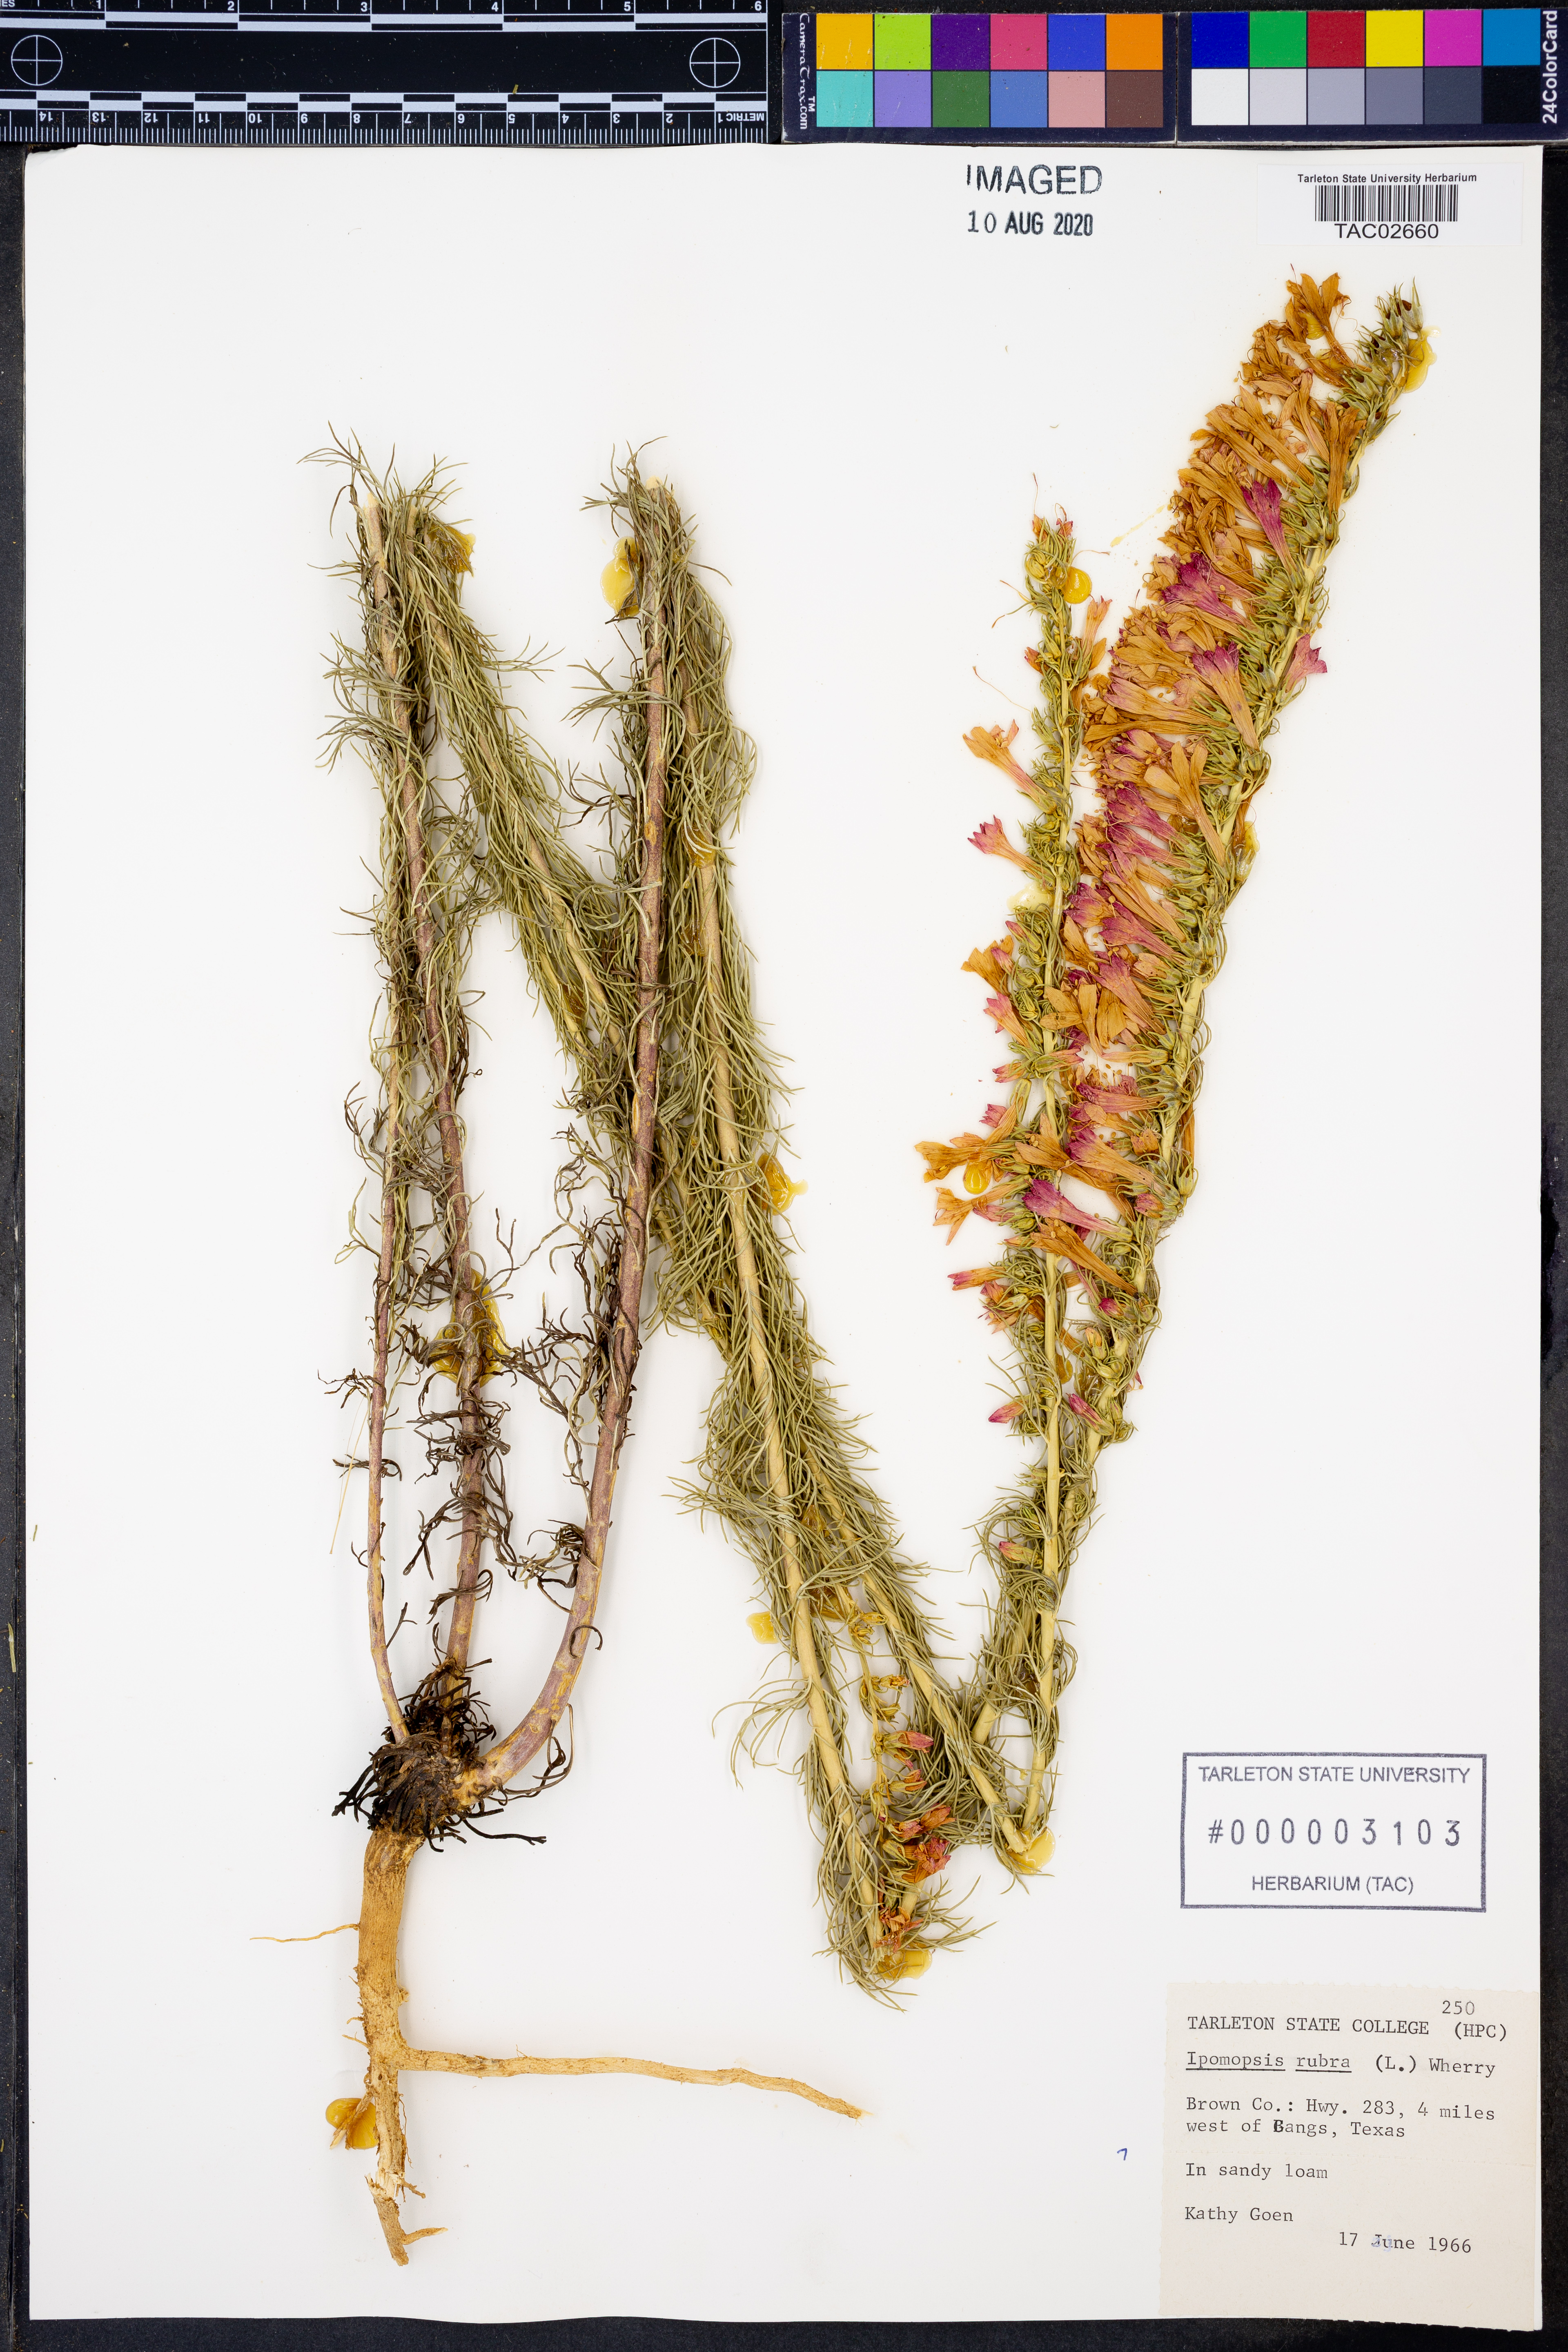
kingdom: Plantae
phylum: Tracheophyta
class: Magnoliopsida
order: Ericales
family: Polemoniaceae
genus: Ipomopsis
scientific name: Ipomopsis rubra
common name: Skyrocket
